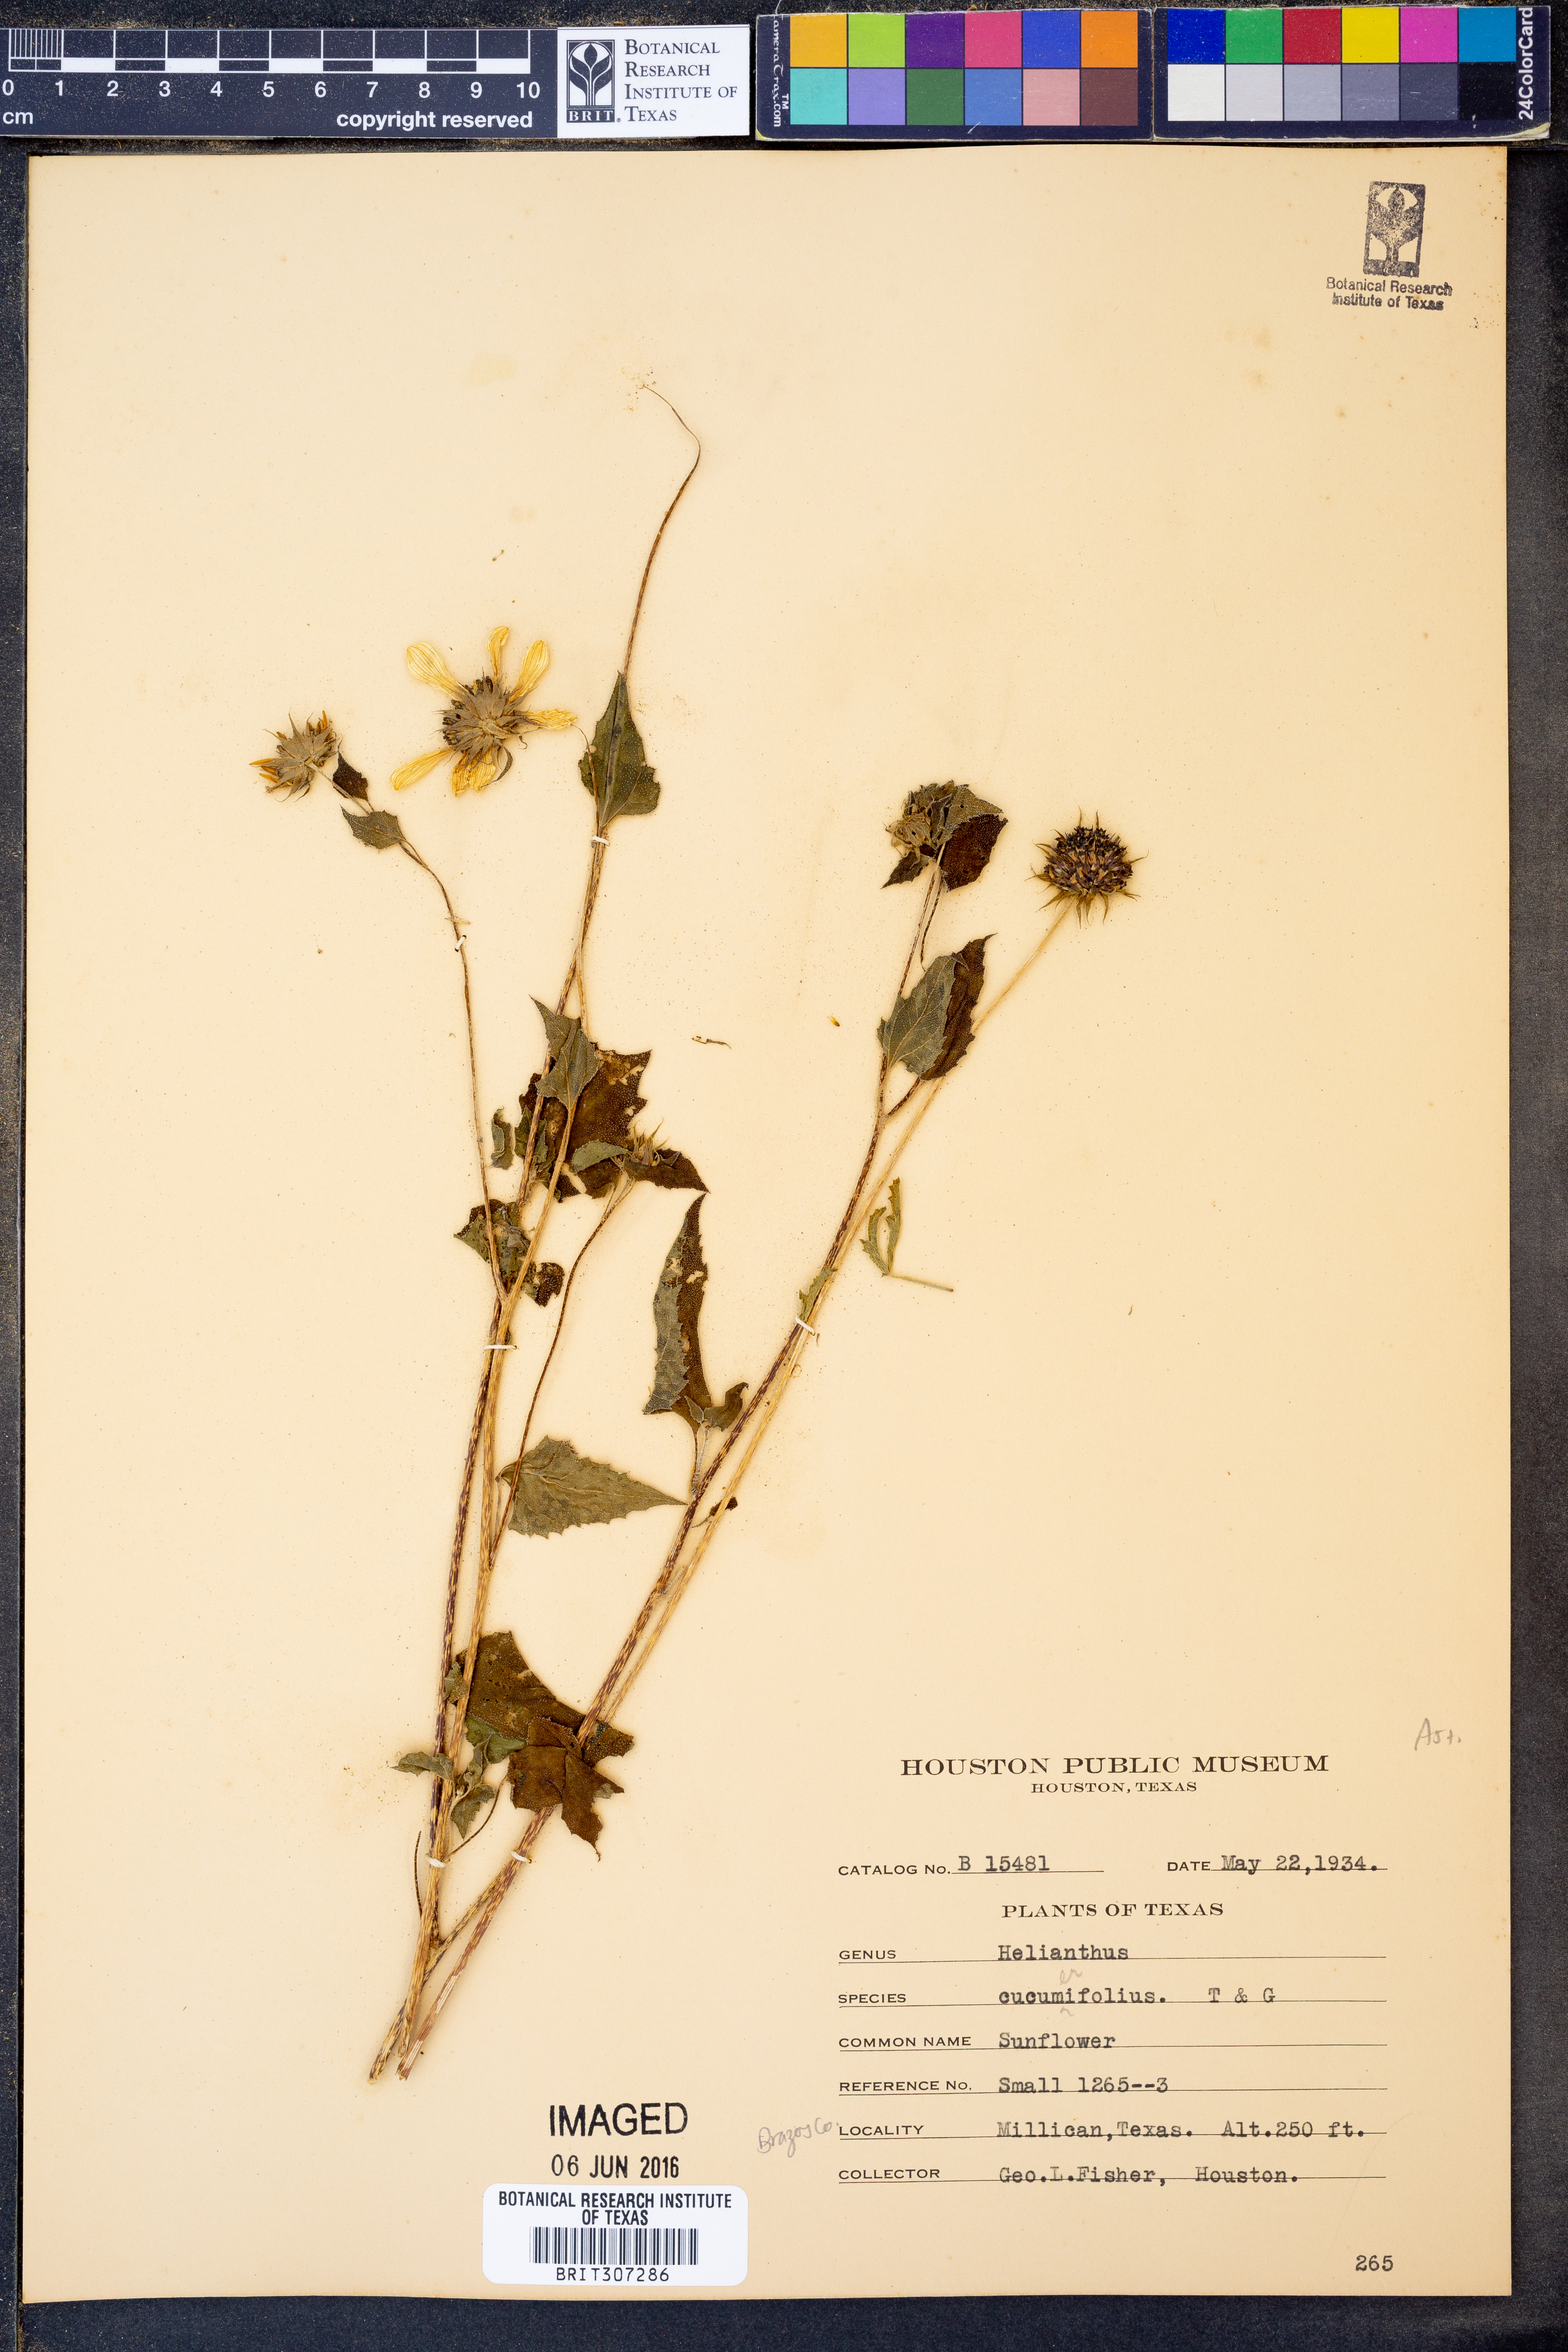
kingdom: Plantae
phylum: Tracheophyta
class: Magnoliopsida
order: Asterales
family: Asteraceae
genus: Helianthus
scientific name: Helianthus debilis
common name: Weak sunflower
